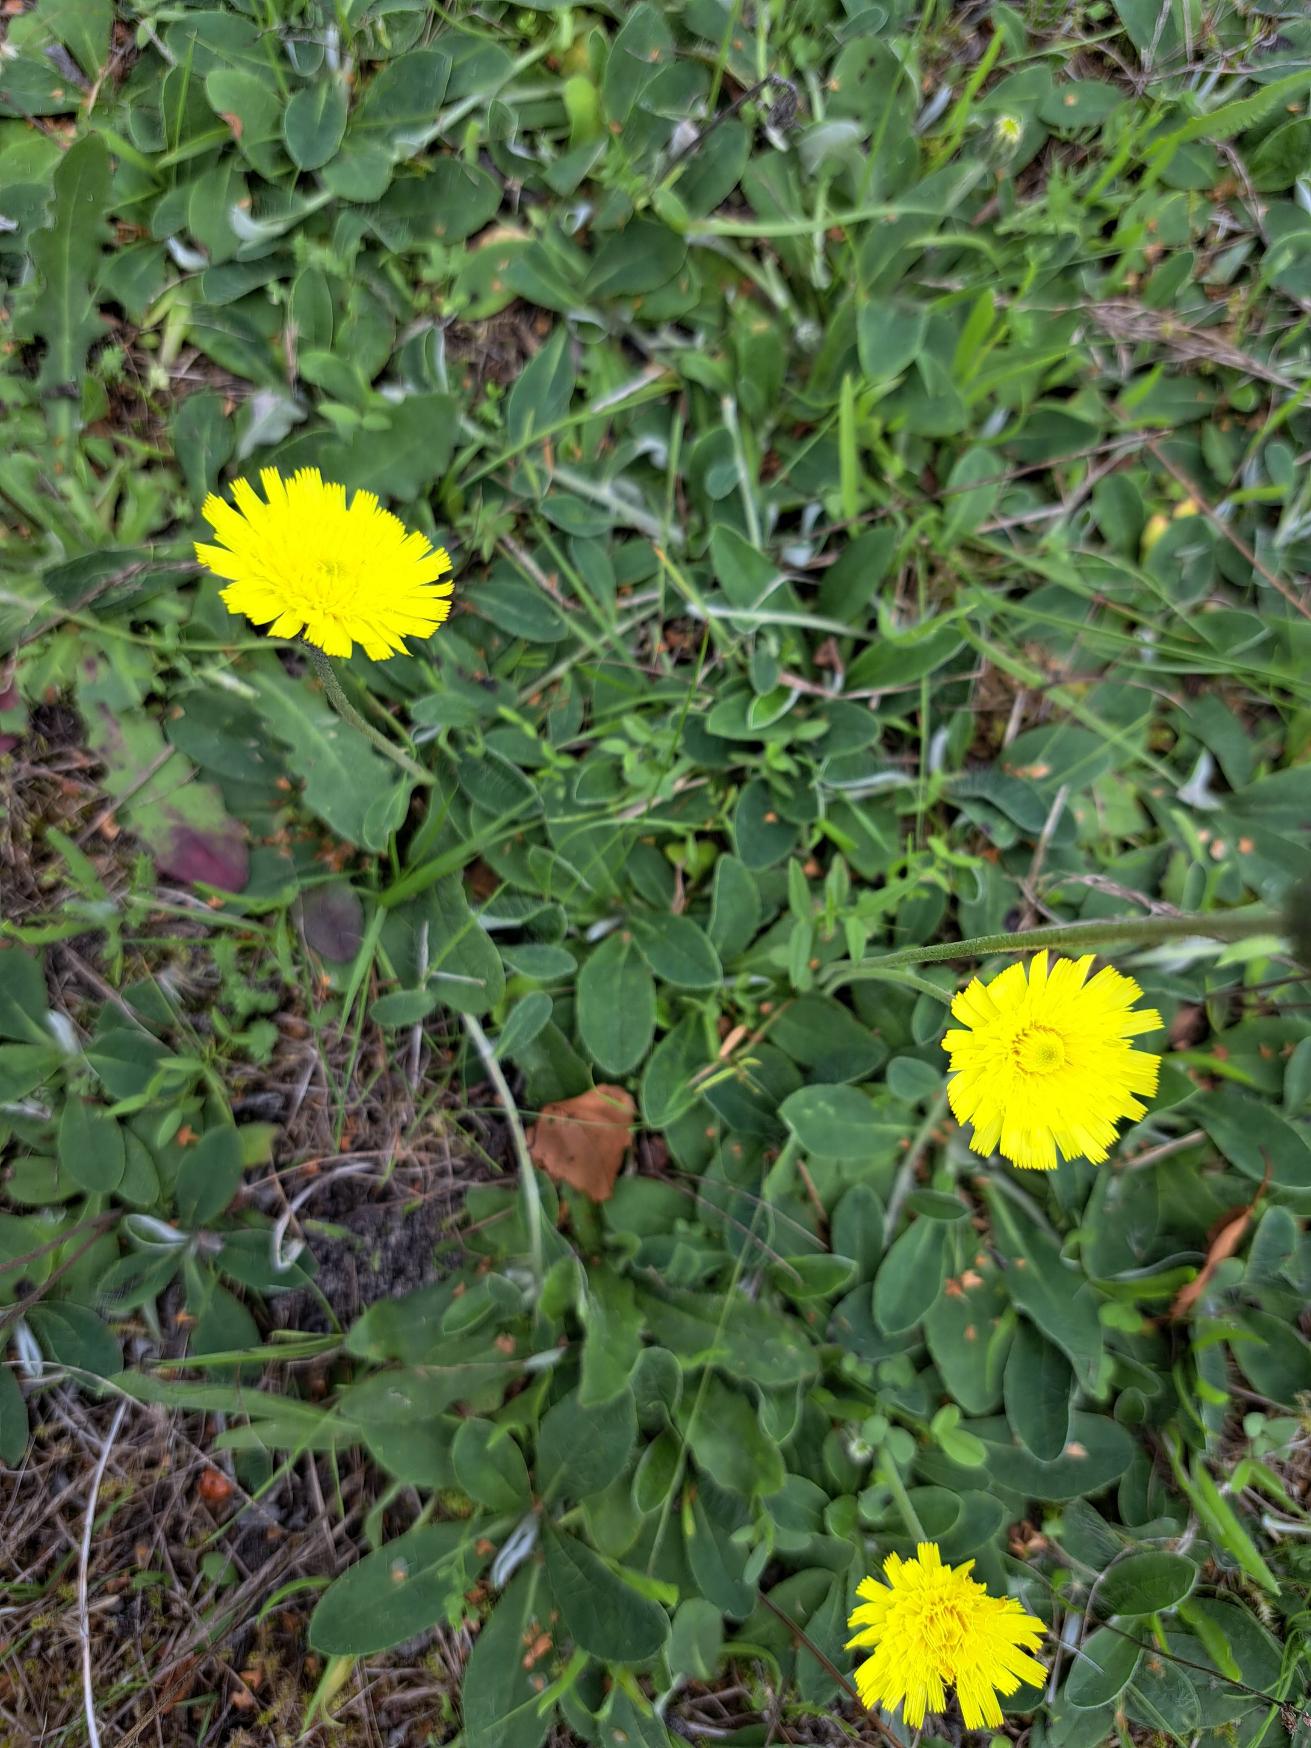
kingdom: Plantae
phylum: Tracheophyta
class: Magnoliopsida
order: Asterales
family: Asteraceae
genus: Pilosella
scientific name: Pilosella officinarum
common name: Håret høgeurt
